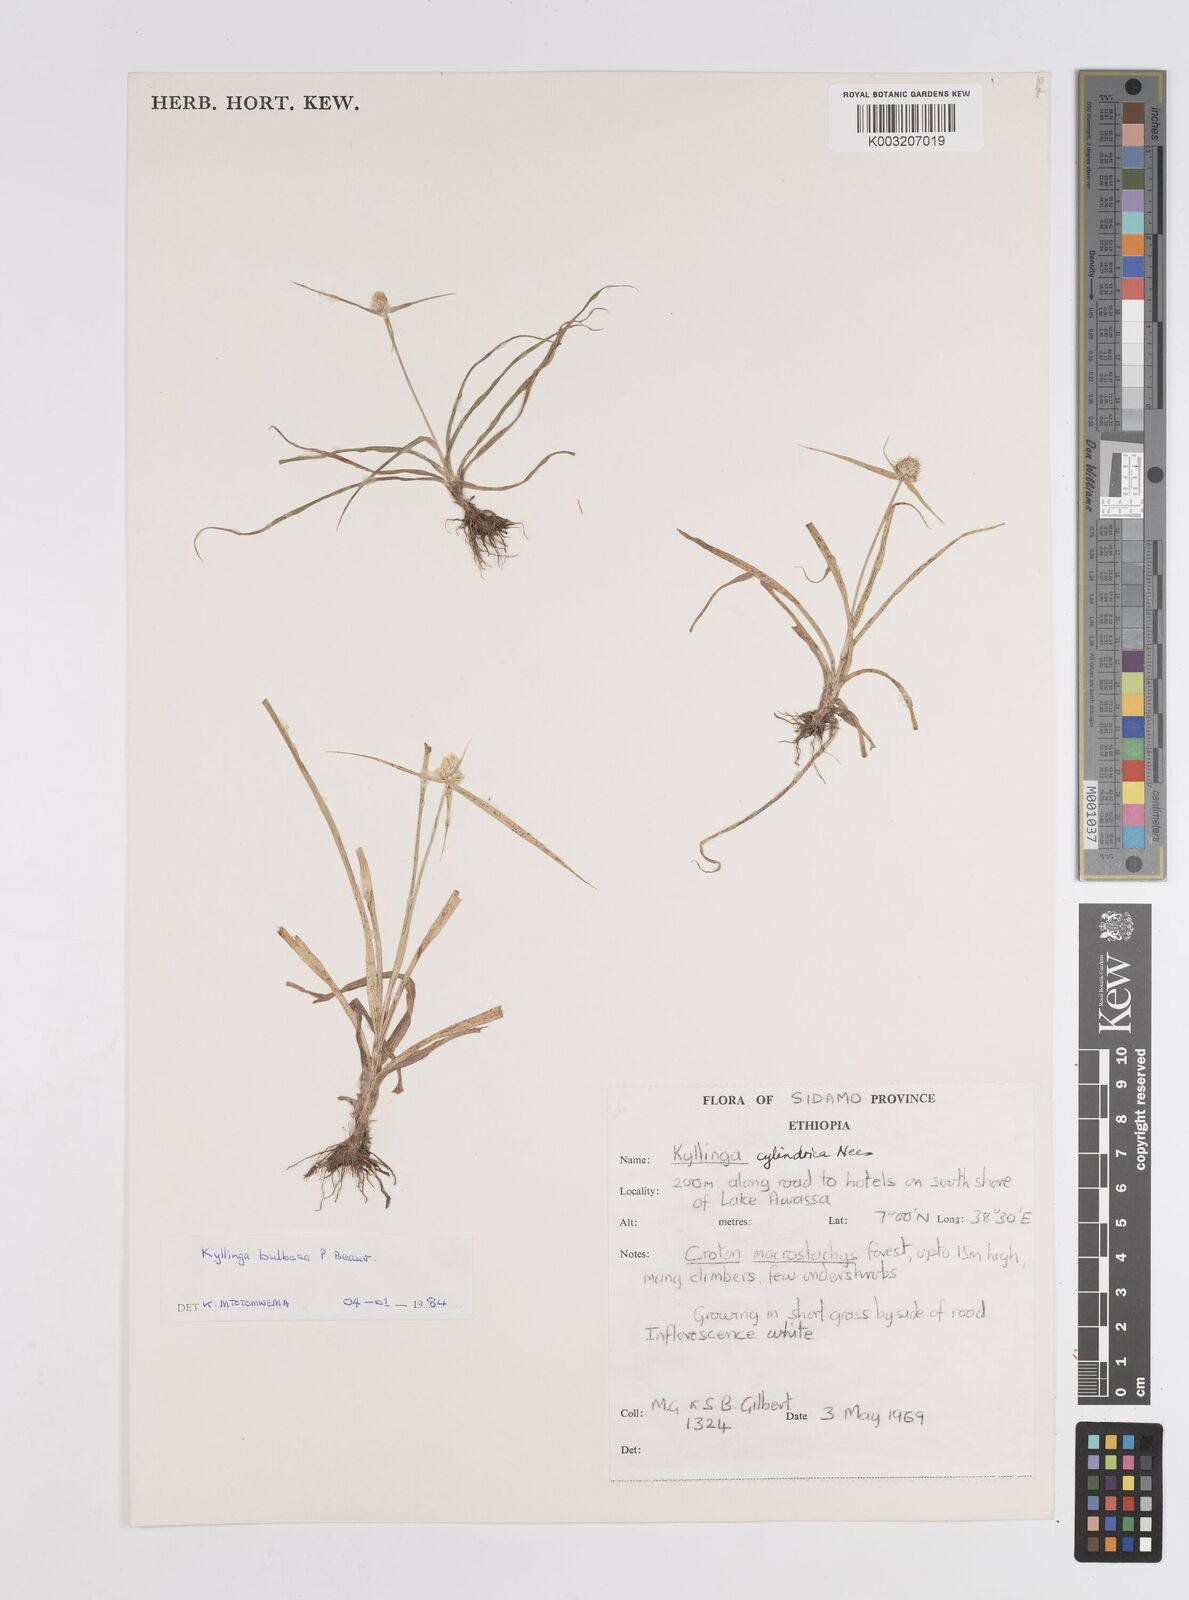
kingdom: Plantae
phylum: Tracheophyta
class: Liliopsida
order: Poales
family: Cyperaceae
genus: Cyperus
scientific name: Cyperus
